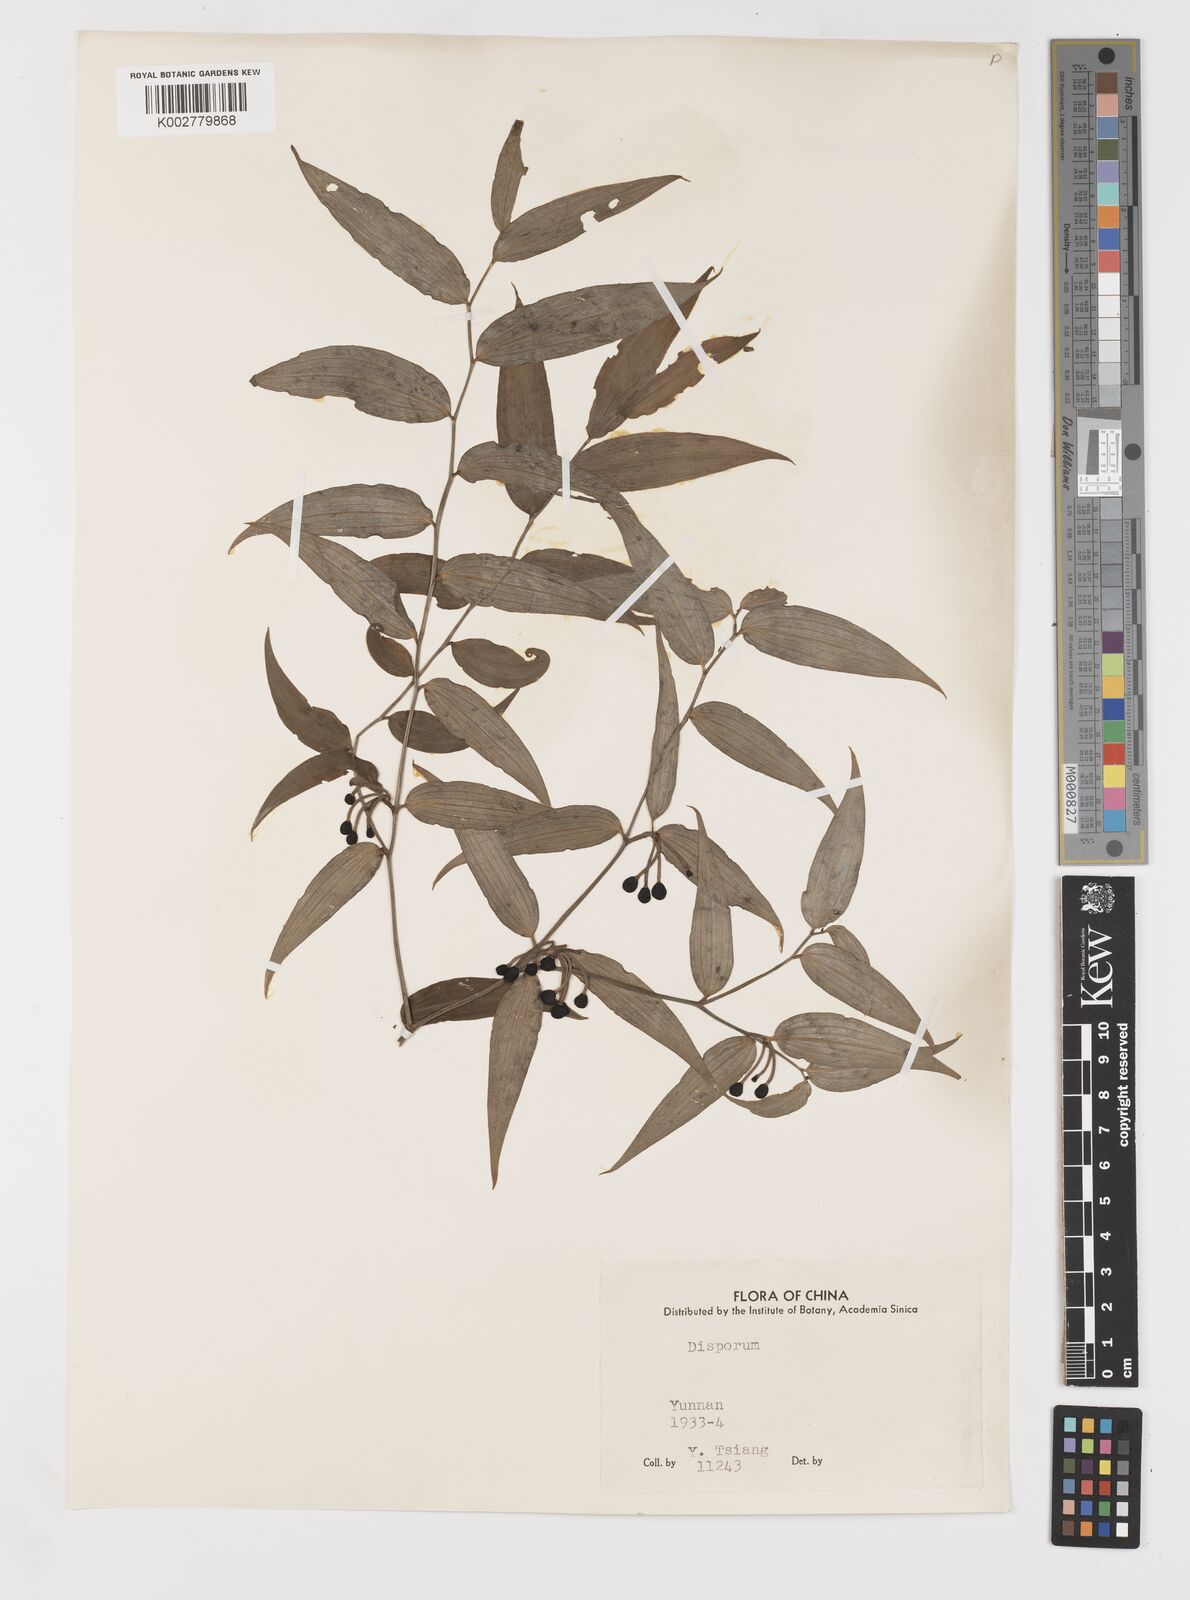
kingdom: Plantae
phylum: Tracheophyta
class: Liliopsida
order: Liliales
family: Colchicaceae
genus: Disporum
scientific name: Disporum
